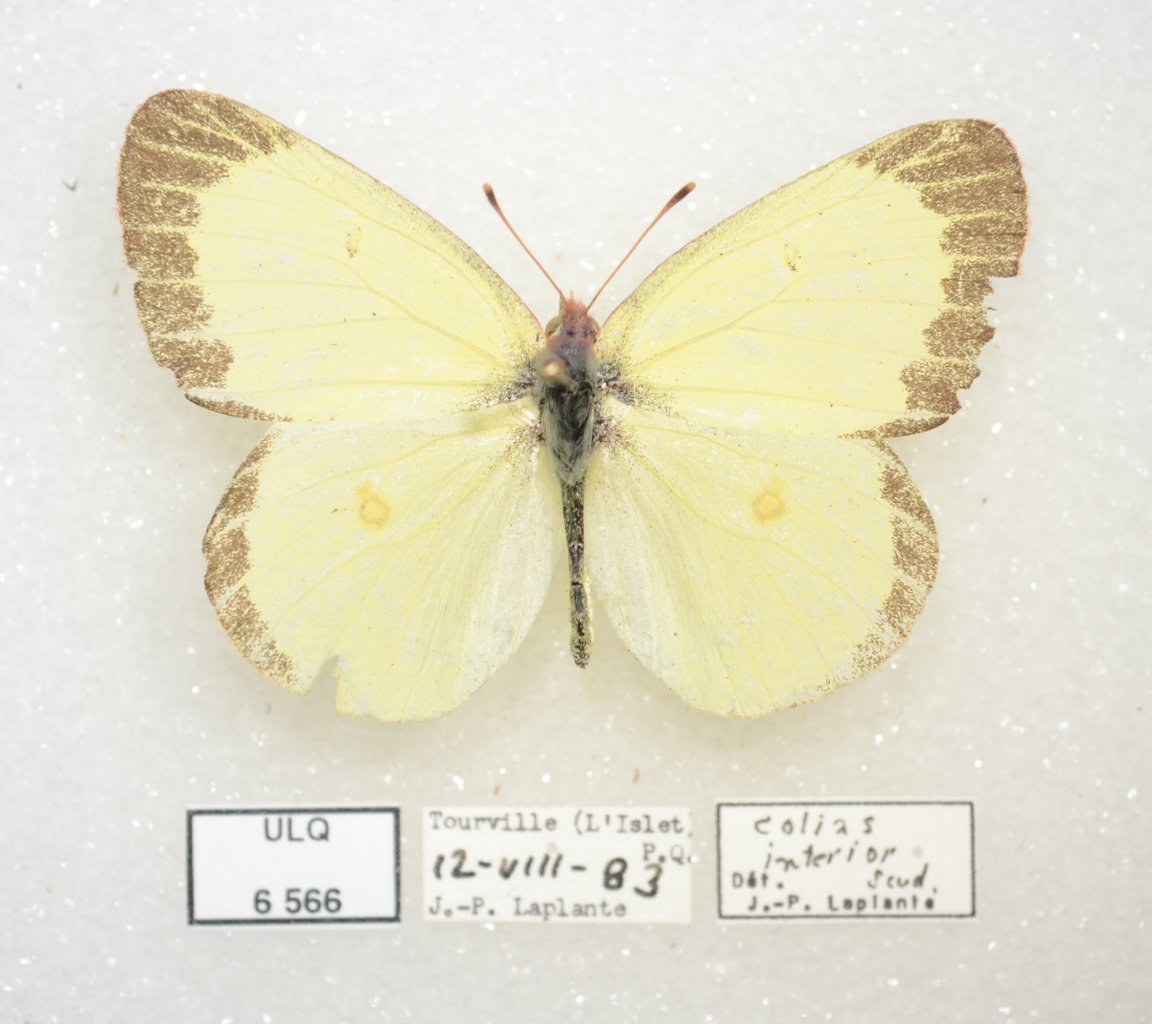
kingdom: Animalia
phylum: Arthropoda
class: Insecta
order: Lepidoptera
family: Pieridae
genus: Colias
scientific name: Colias interior
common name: Pink-edged Sulphur
